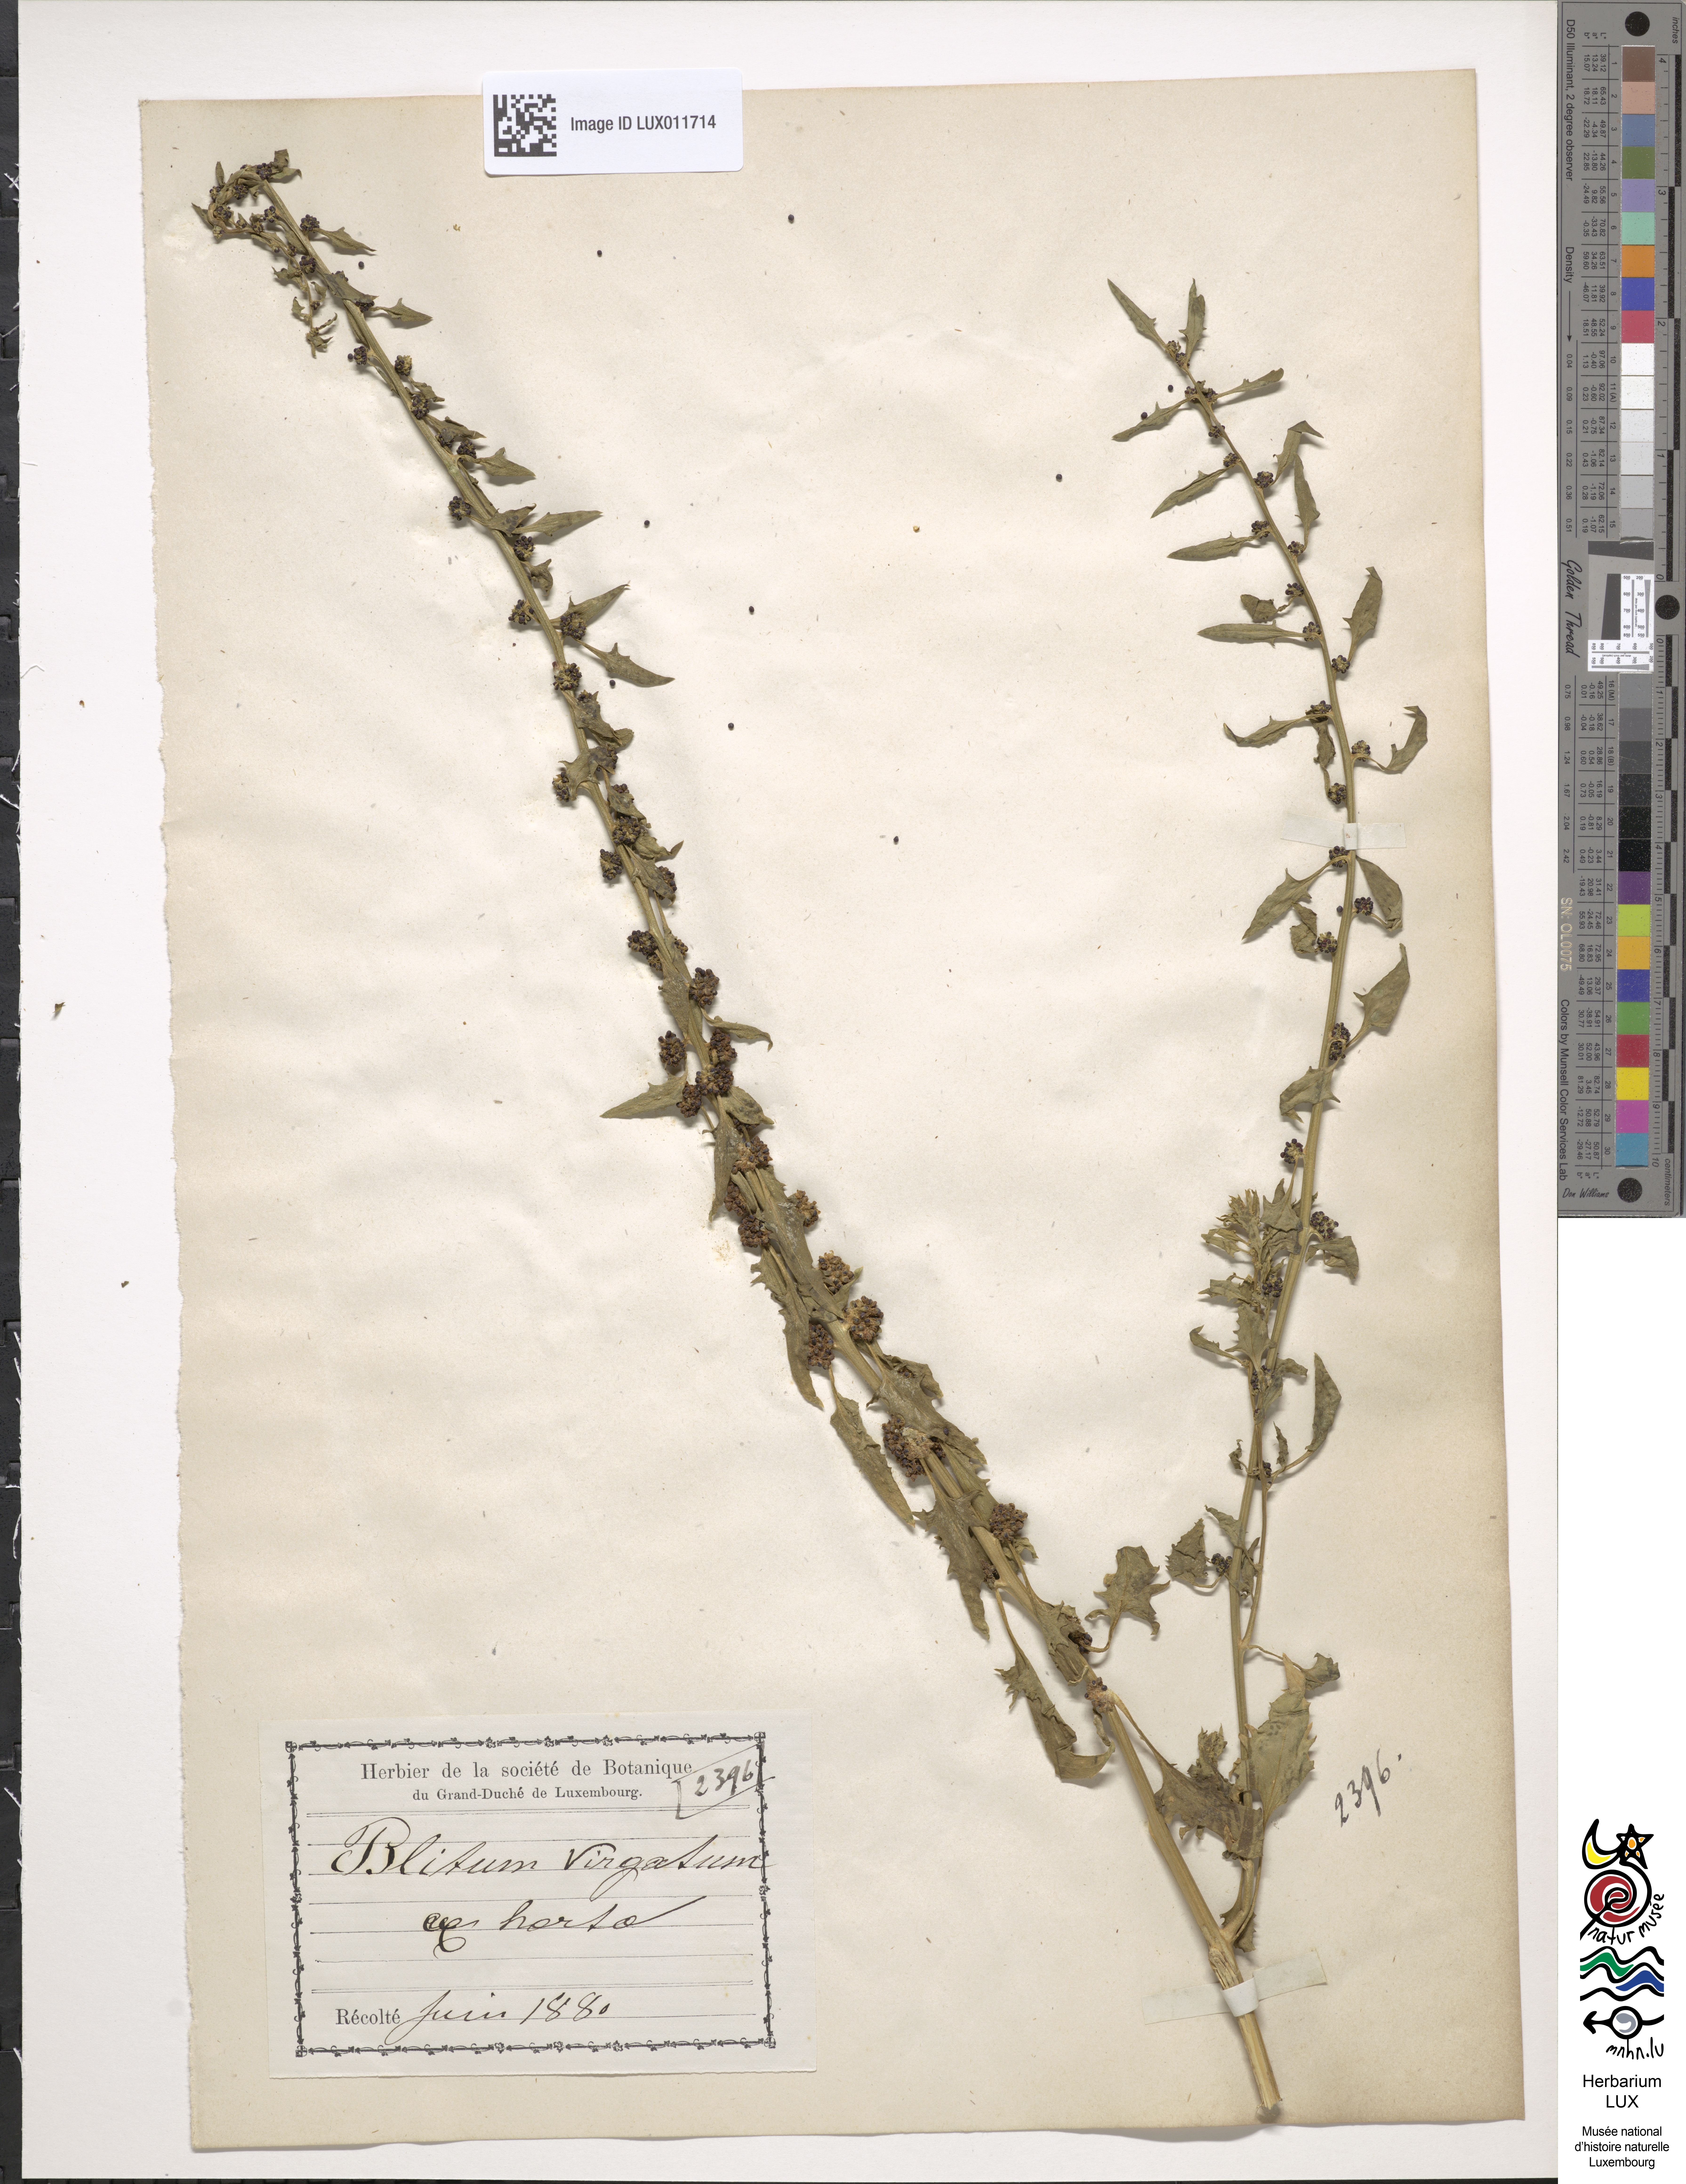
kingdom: Plantae
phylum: Tracheophyta
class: Magnoliopsida
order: Caryophyllales
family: Amaranthaceae
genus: Blitum
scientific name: Blitum virgatum
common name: Strawberry goosefoot
